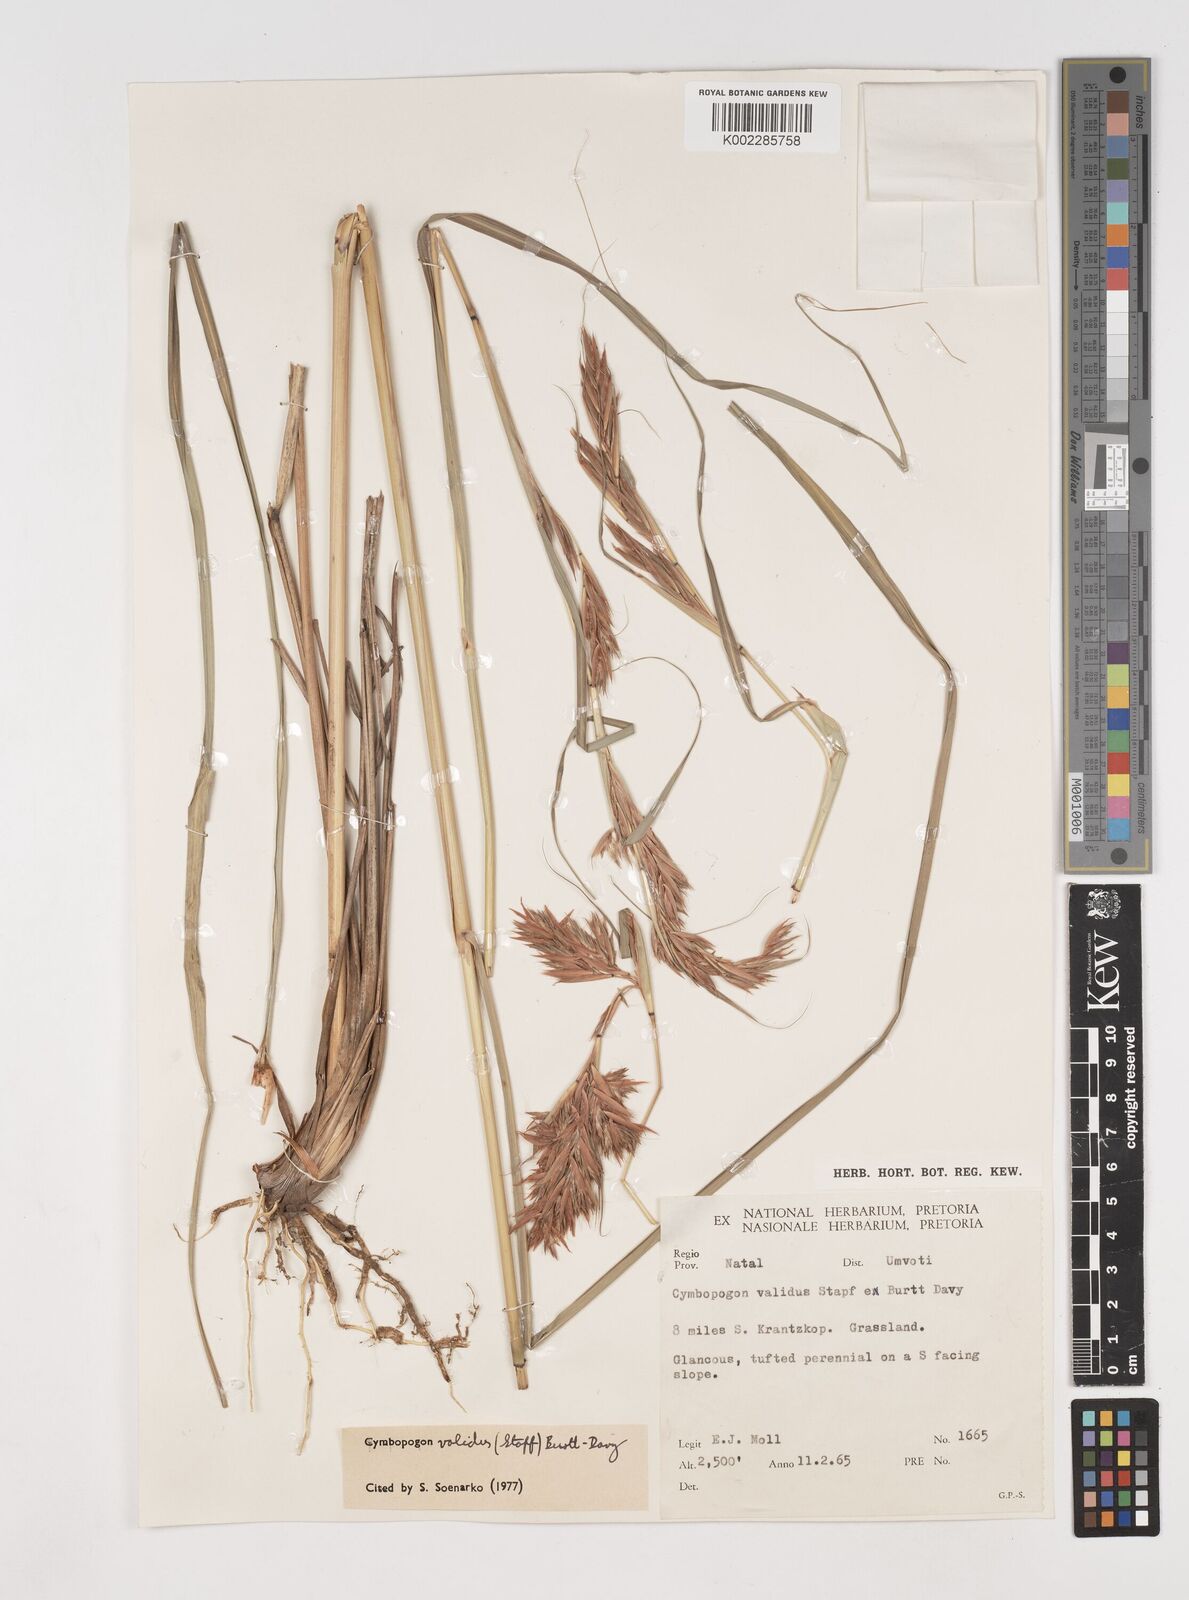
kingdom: Plantae
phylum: Tracheophyta
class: Liliopsida
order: Poales
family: Poaceae
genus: Cymbopogon
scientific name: Cymbopogon nardus
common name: Giant turpentine grass
